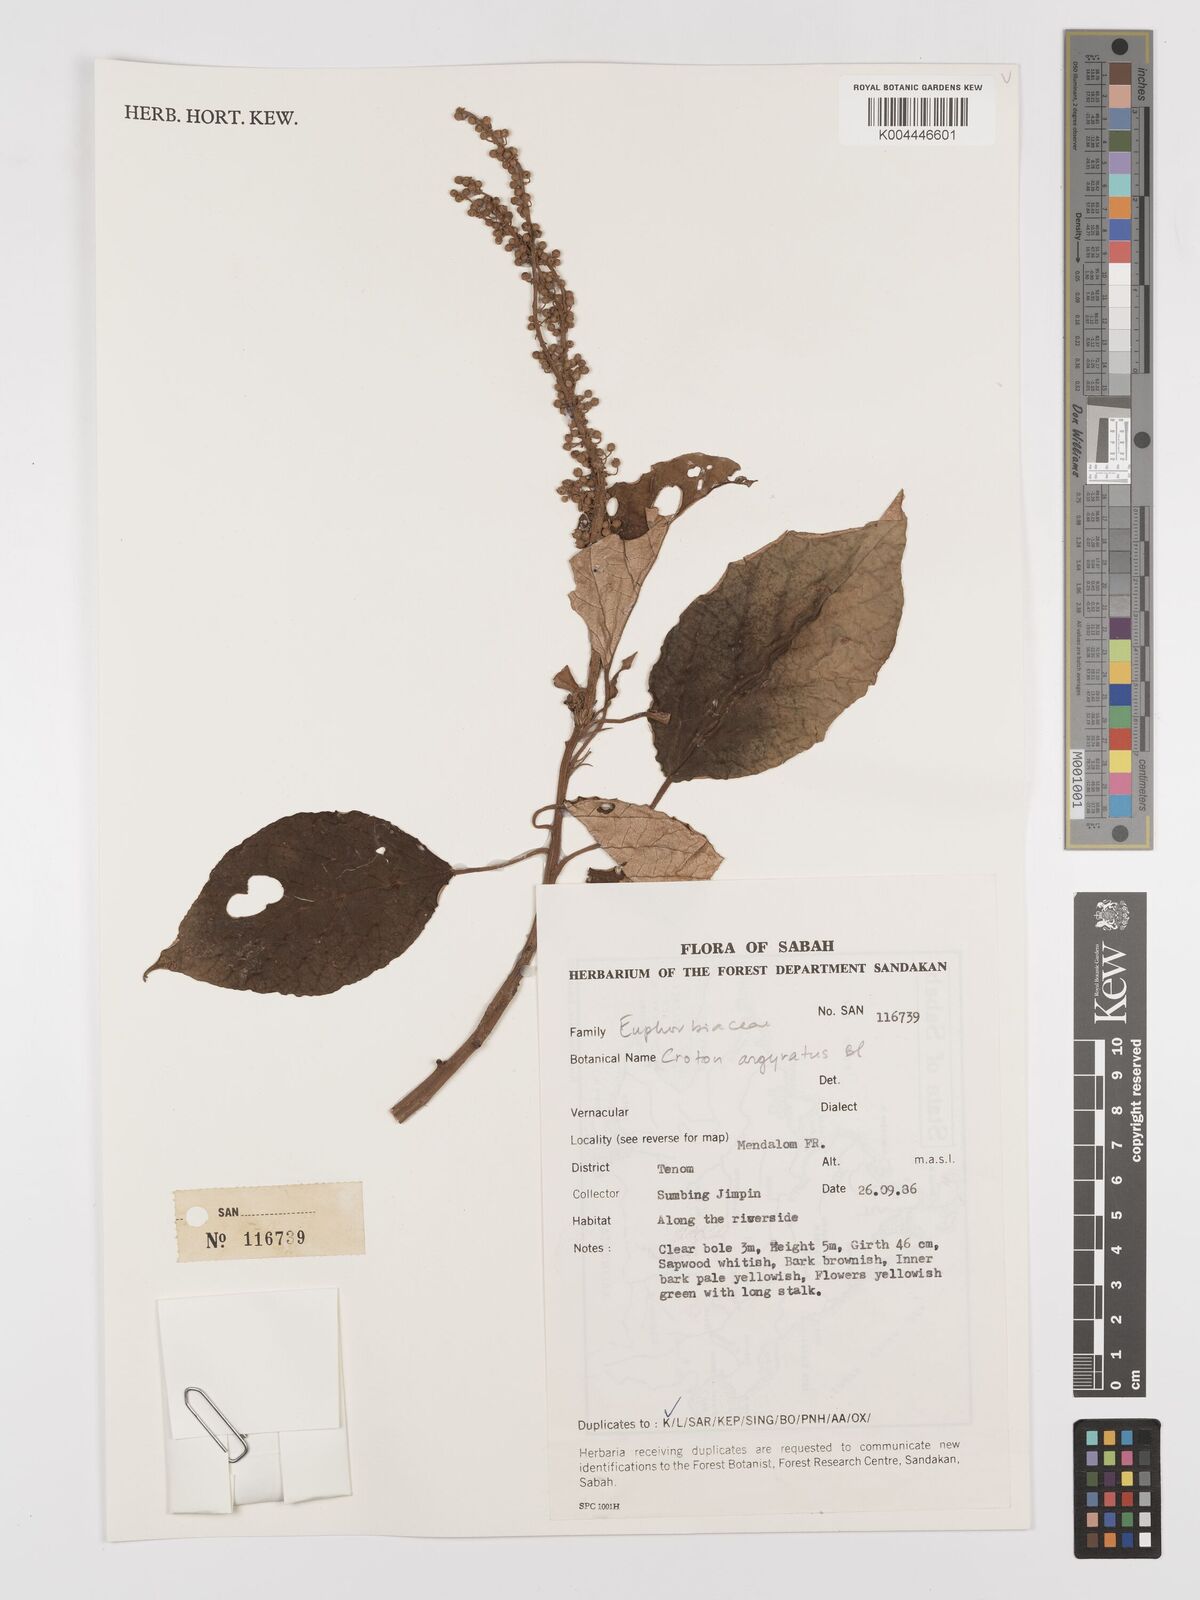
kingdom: Plantae
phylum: Tracheophyta
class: Magnoliopsida
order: Malpighiales
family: Euphorbiaceae
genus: Croton
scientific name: Croton argyratus
